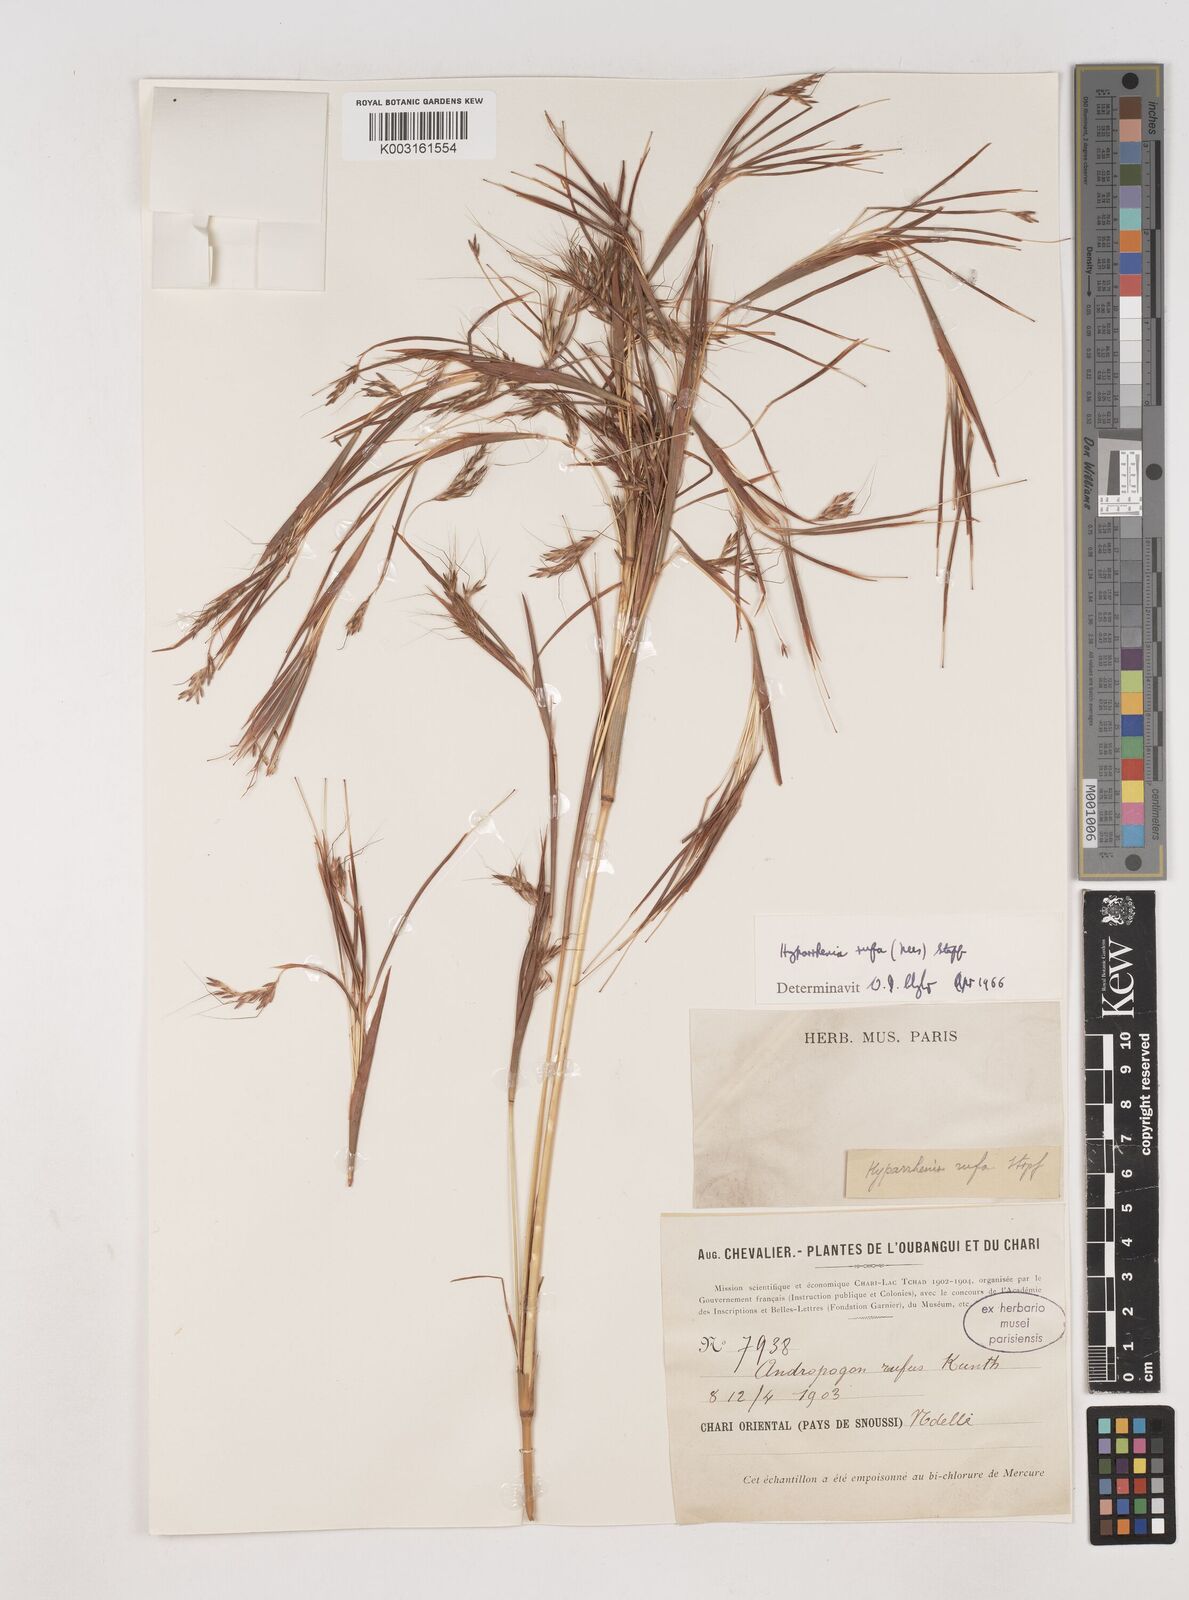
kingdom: Plantae
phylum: Tracheophyta
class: Liliopsida
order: Poales
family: Poaceae
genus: Hyparrhenia
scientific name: Hyparrhenia rufa
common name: Jaraguagrass
